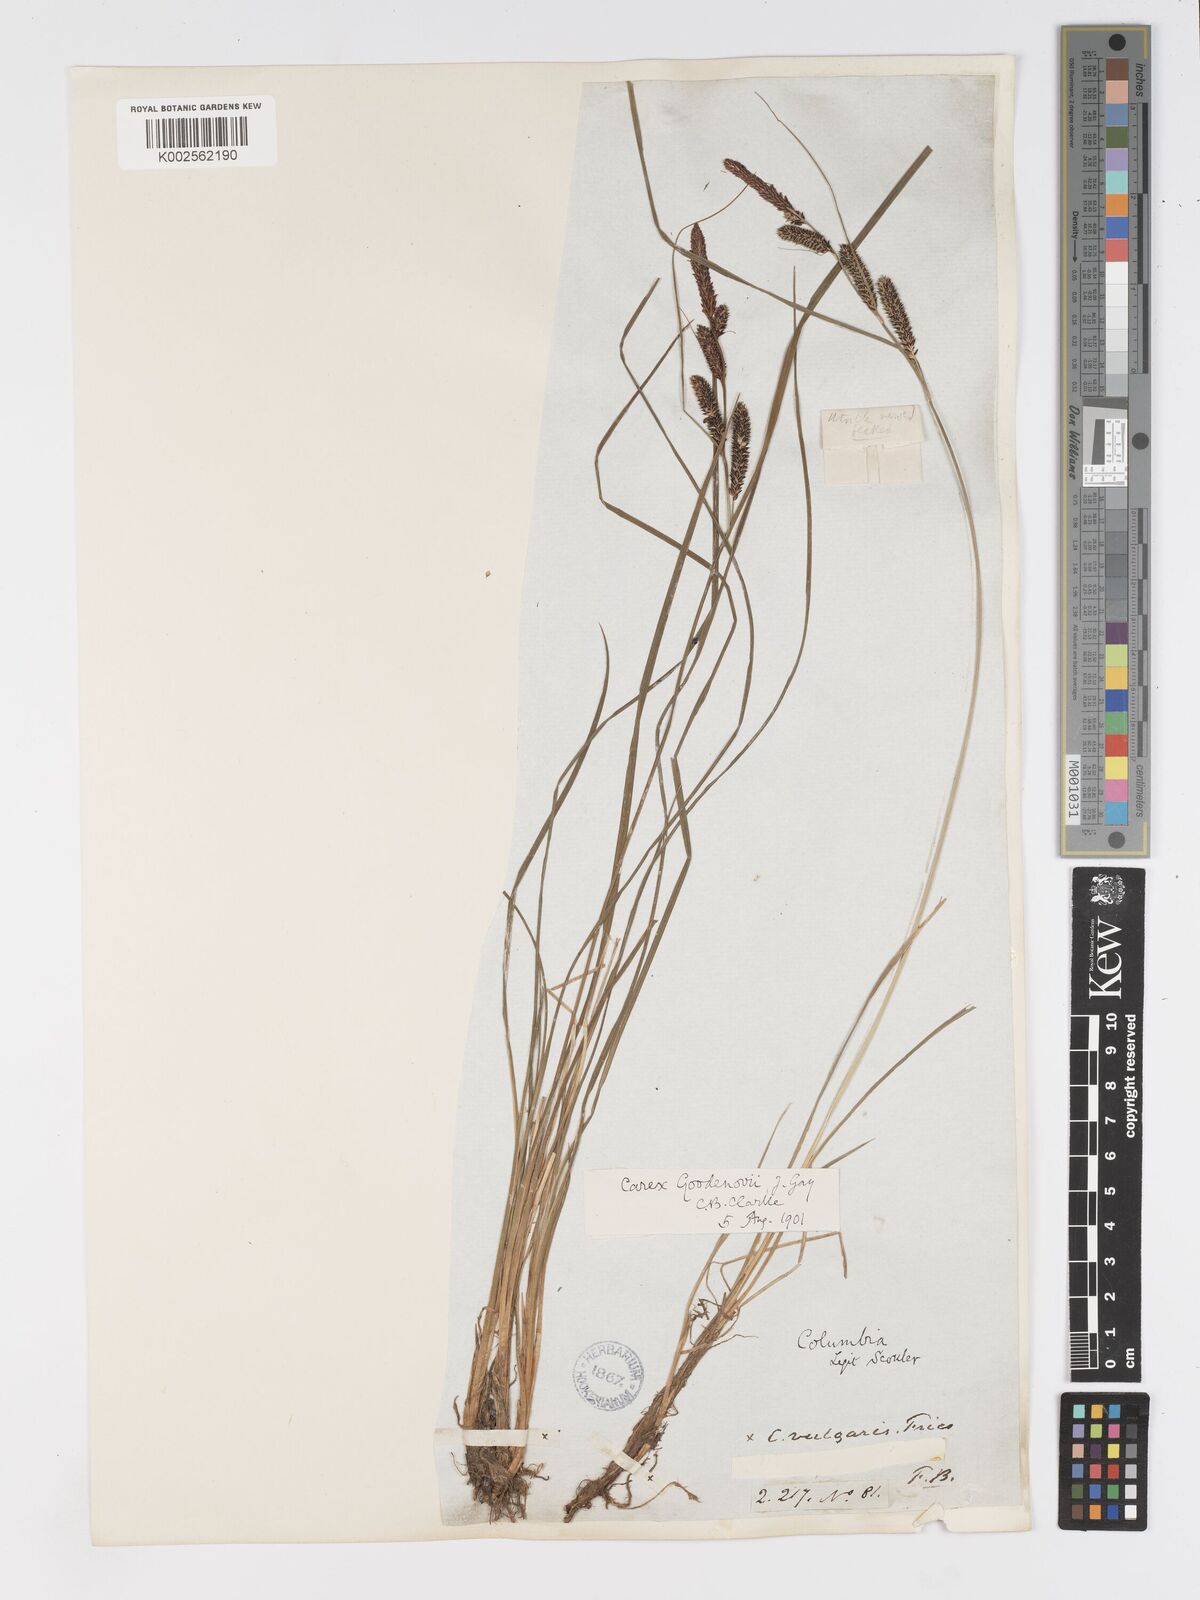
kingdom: Plantae
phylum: Tracheophyta
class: Liliopsida
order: Poales
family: Cyperaceae
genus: Carex
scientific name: Carex nigra
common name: Common sedge
